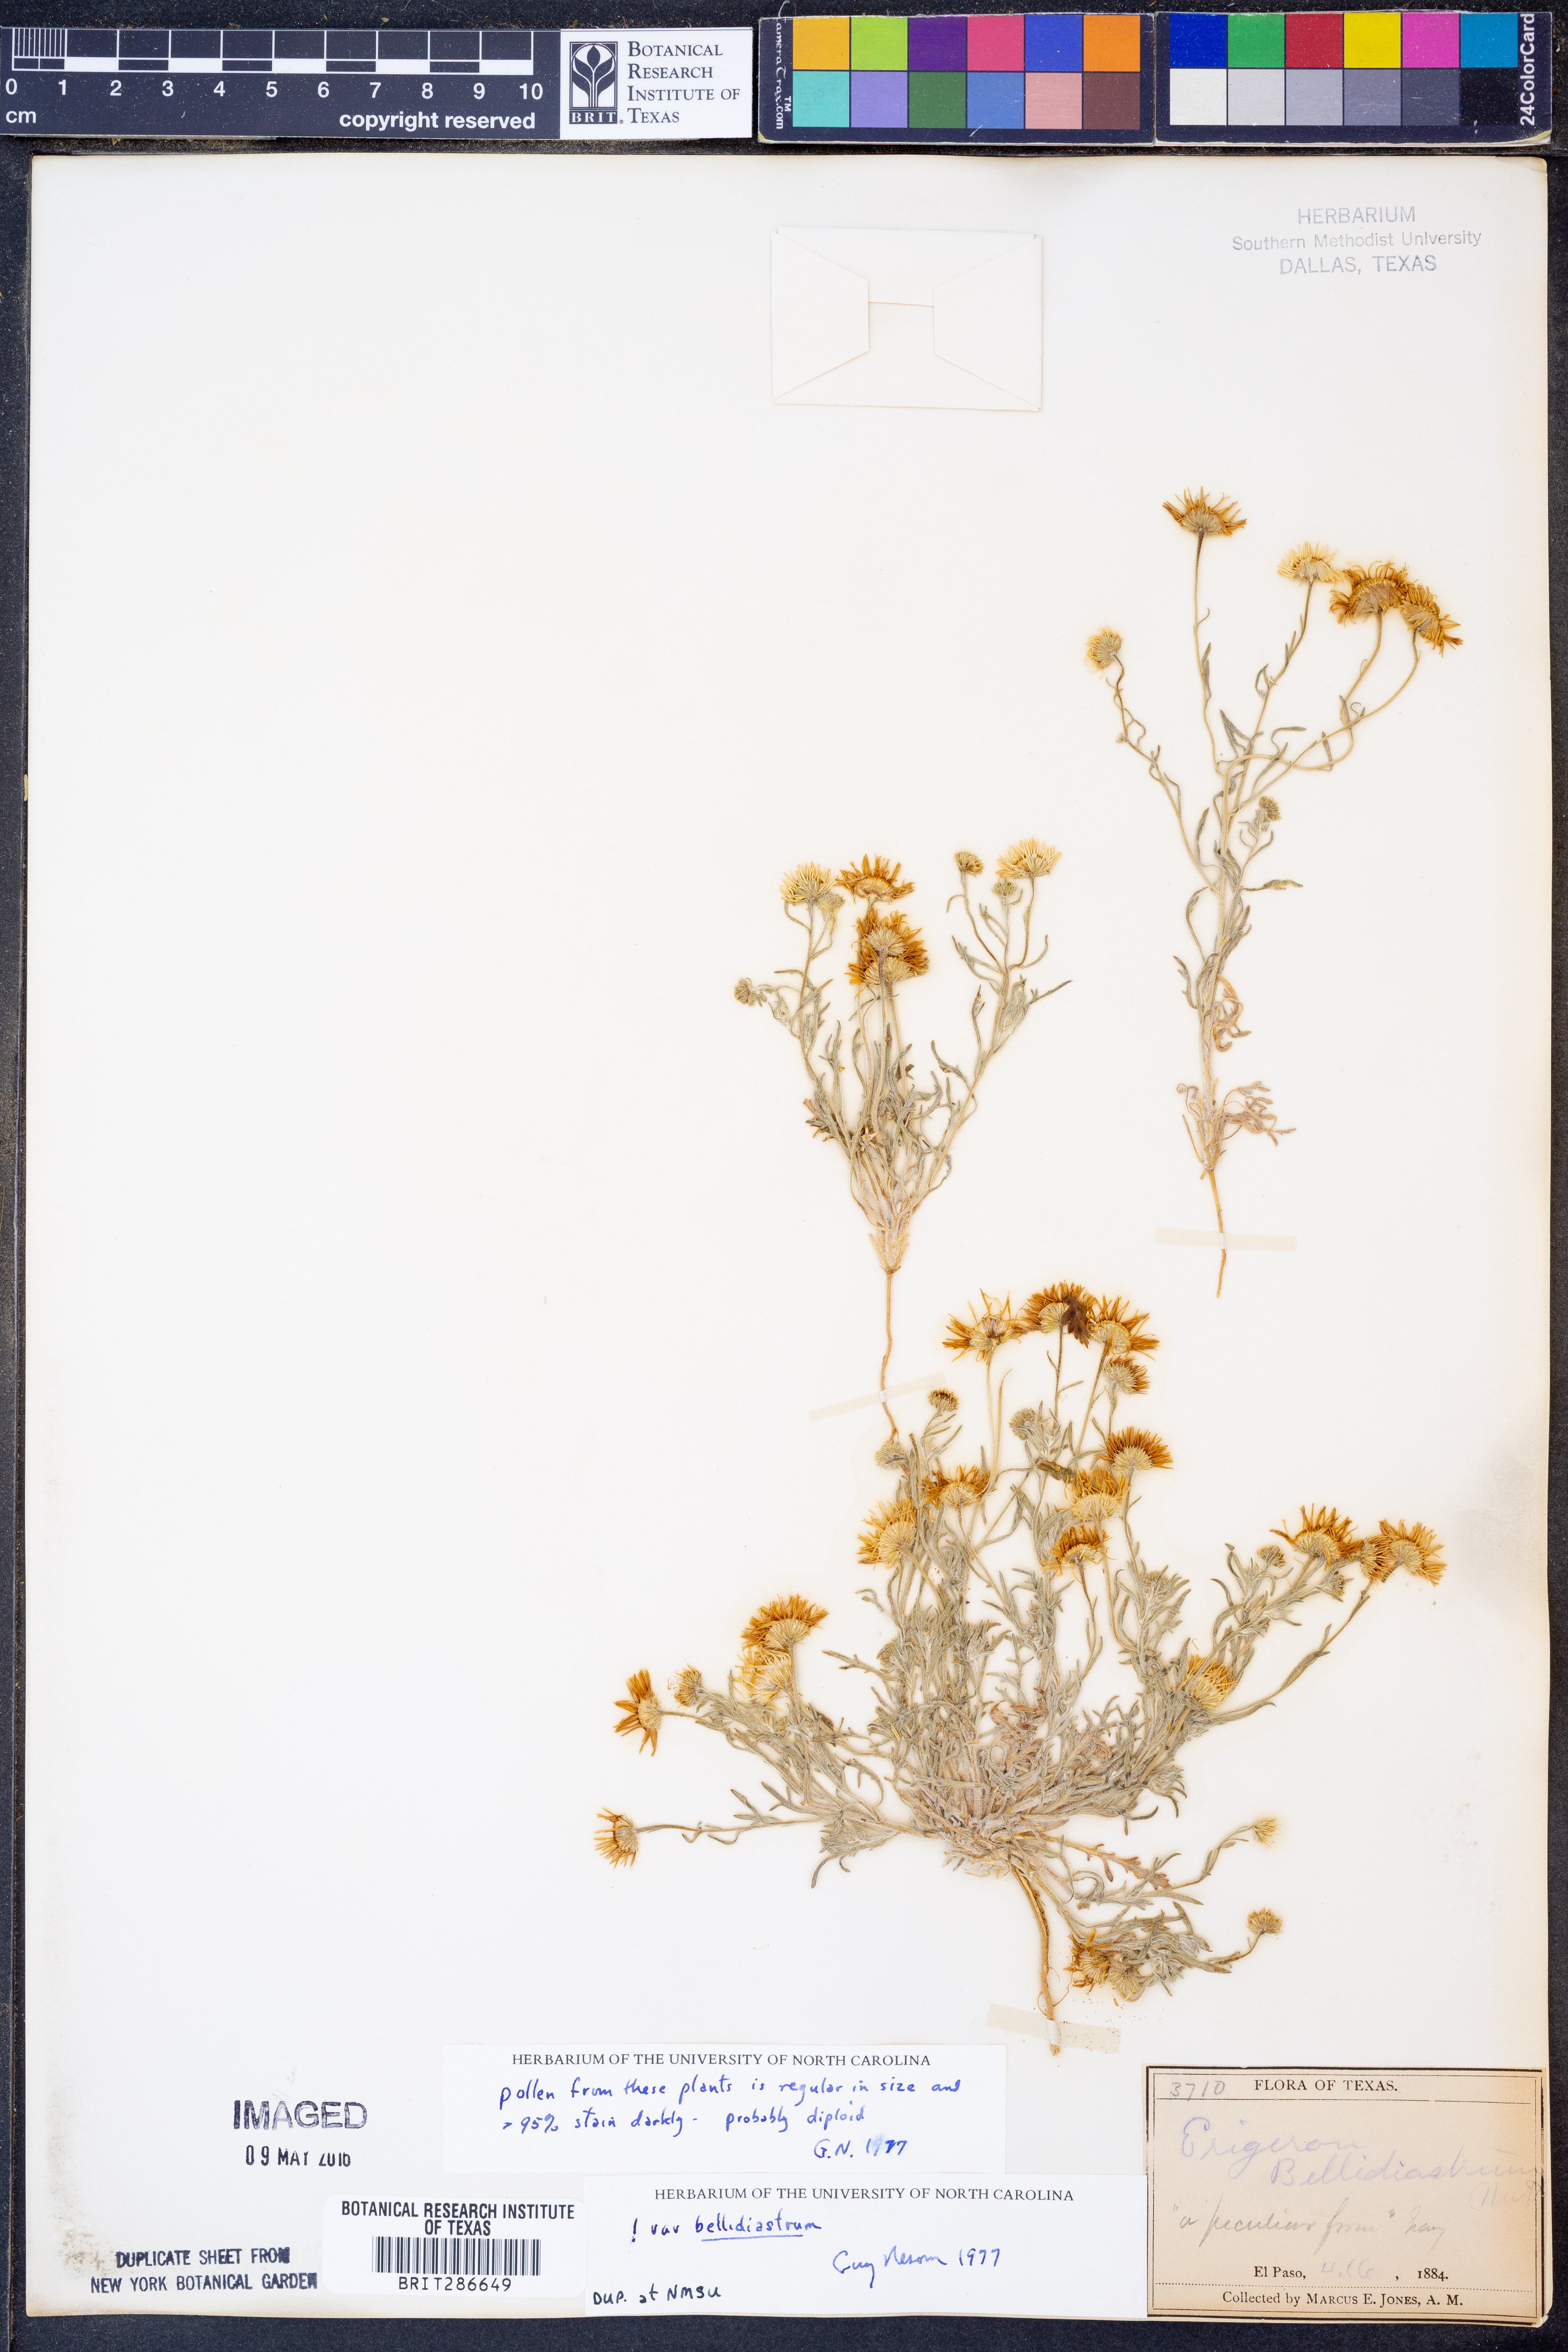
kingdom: Plantae
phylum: Tracheophyta
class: Magnoliopsida
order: Asterales
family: Asteraceae
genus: Erigeron
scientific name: Erigeron bellidiastrum
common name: Sand fleabane
